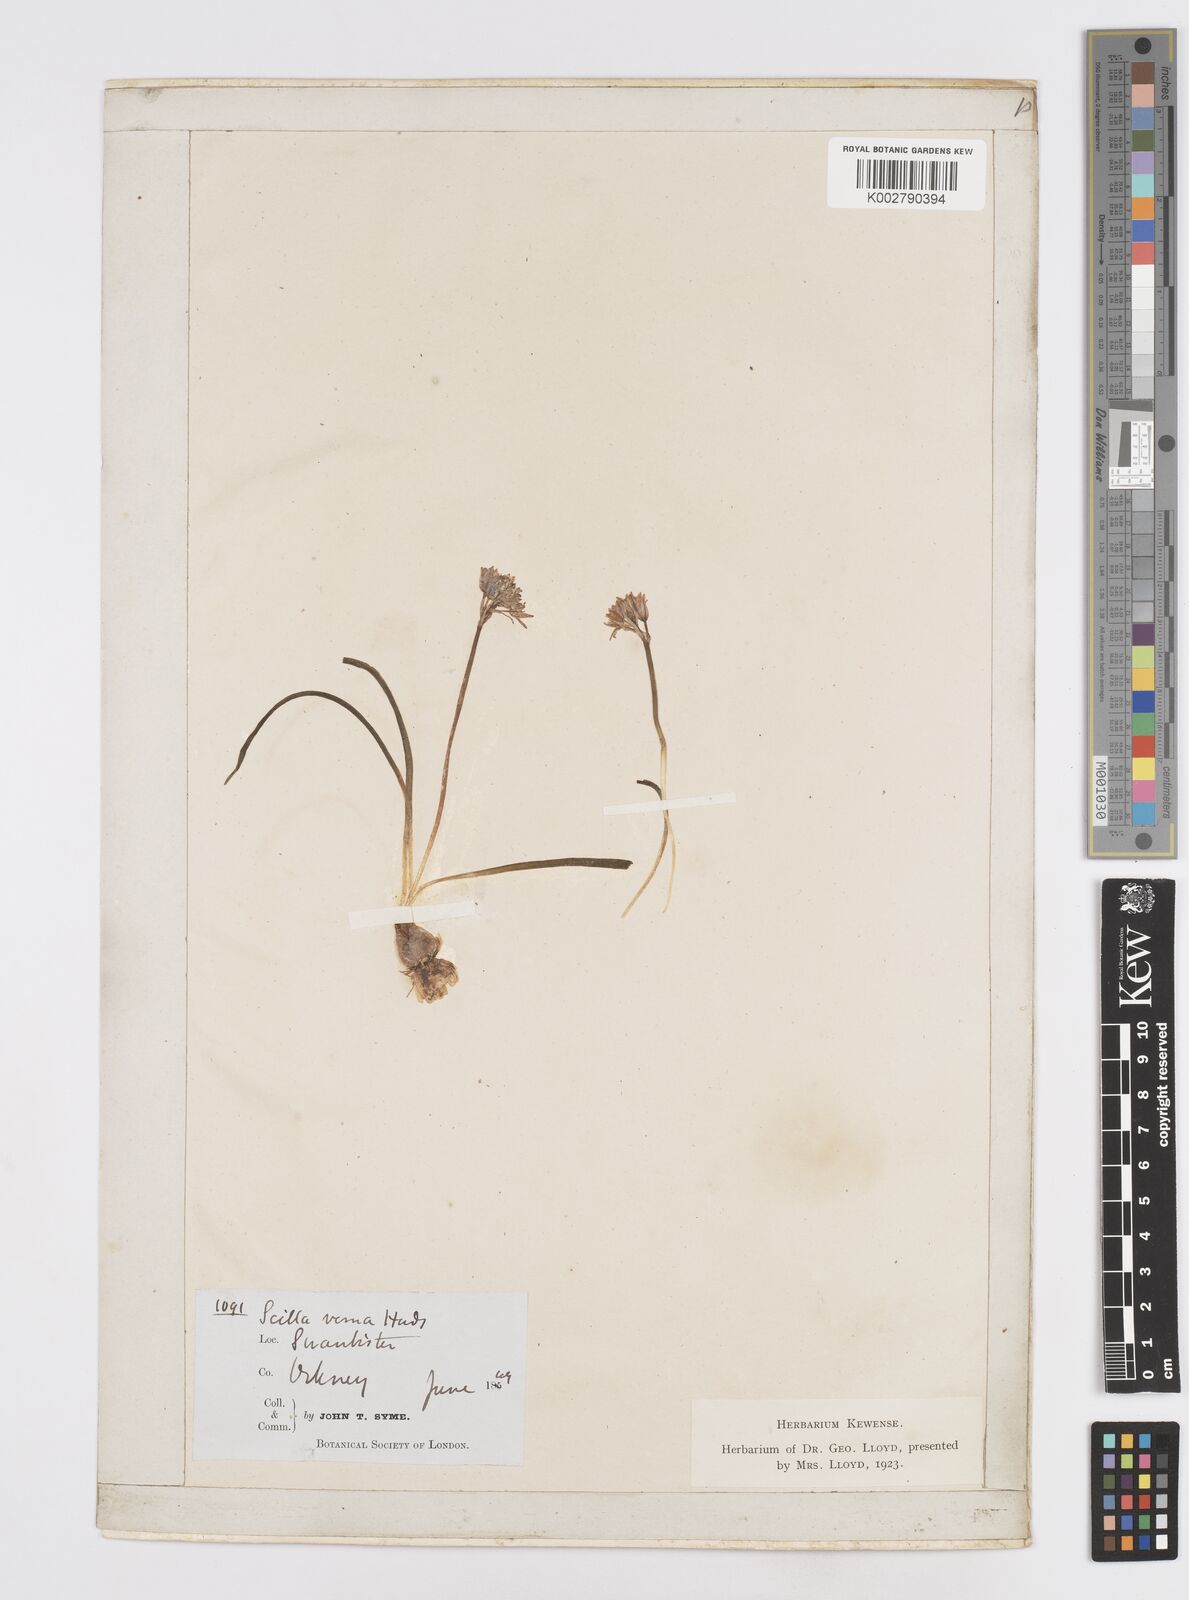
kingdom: Plantae
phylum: Tracheophyta
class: Liliopsida
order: Asparagales
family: Asparagaceae
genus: Scilla
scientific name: Scilla verna
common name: Spring squill
